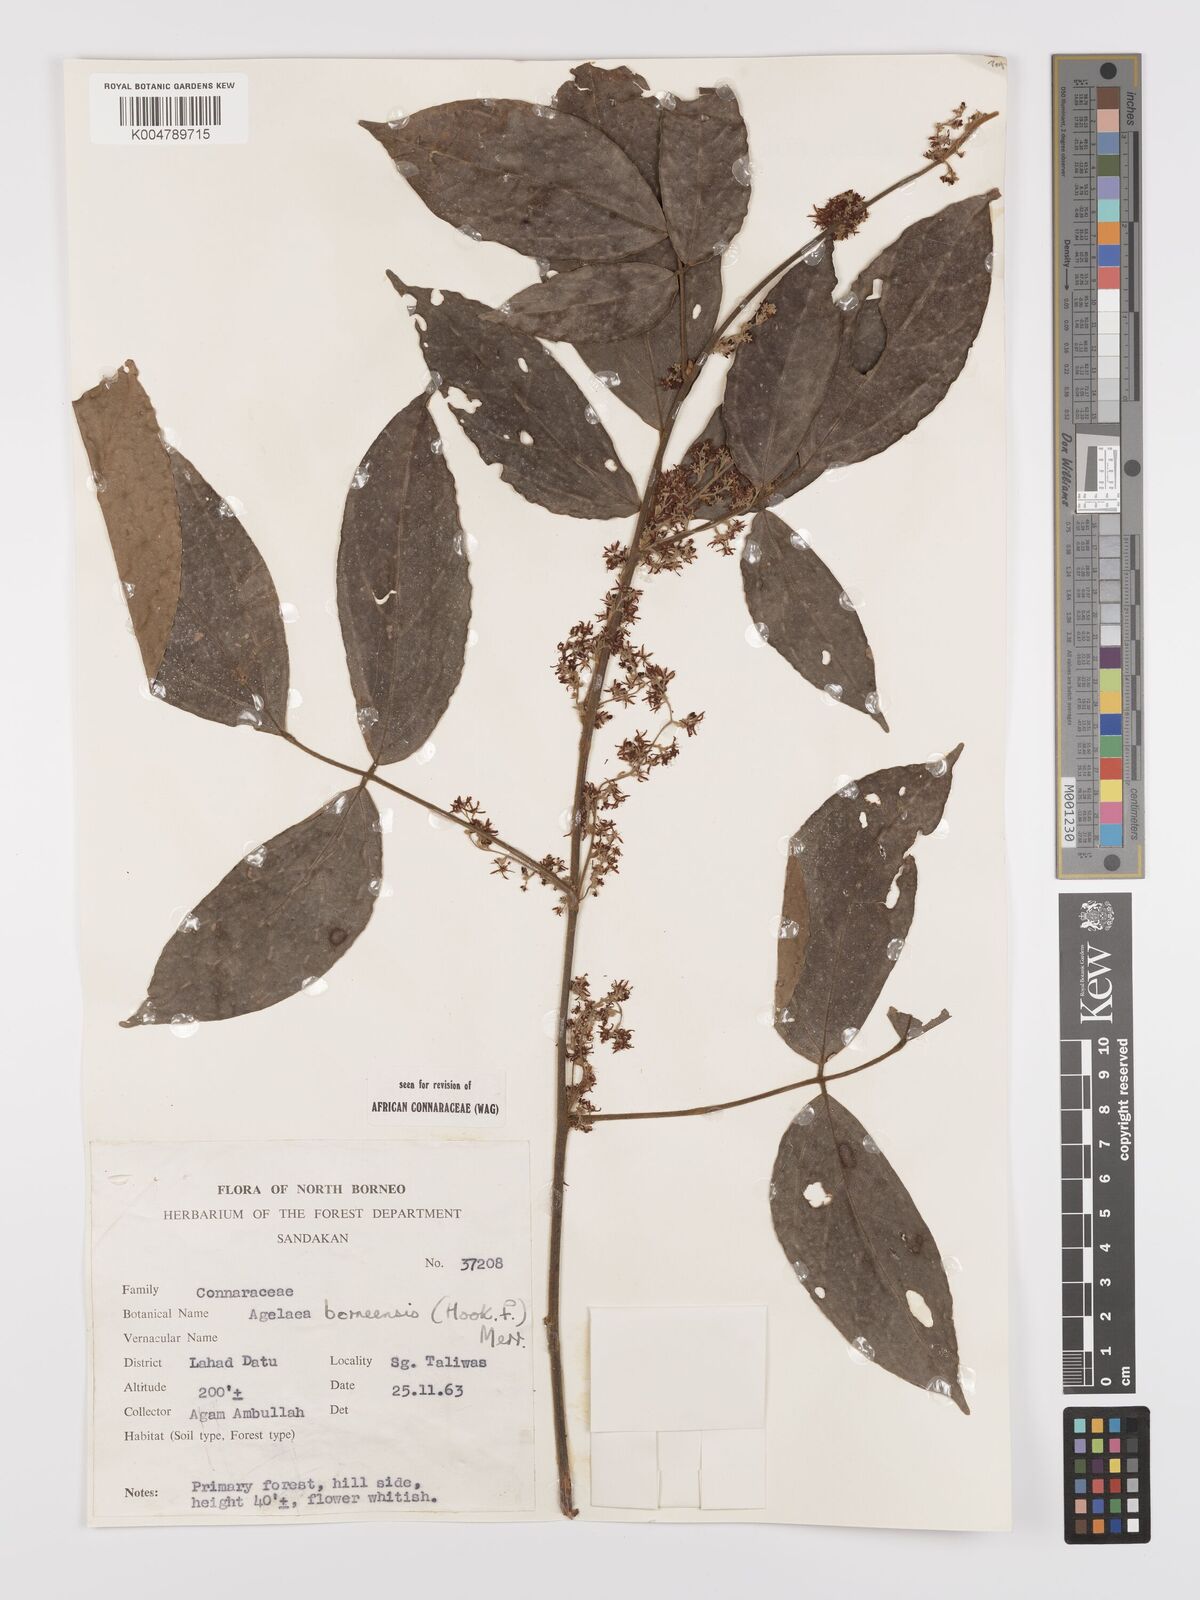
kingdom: Plantae
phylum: Tracheophyta
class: Magnoliopsida
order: Oxalidales
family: Connaraceae
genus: Agelaea
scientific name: Agelaea borneensis
